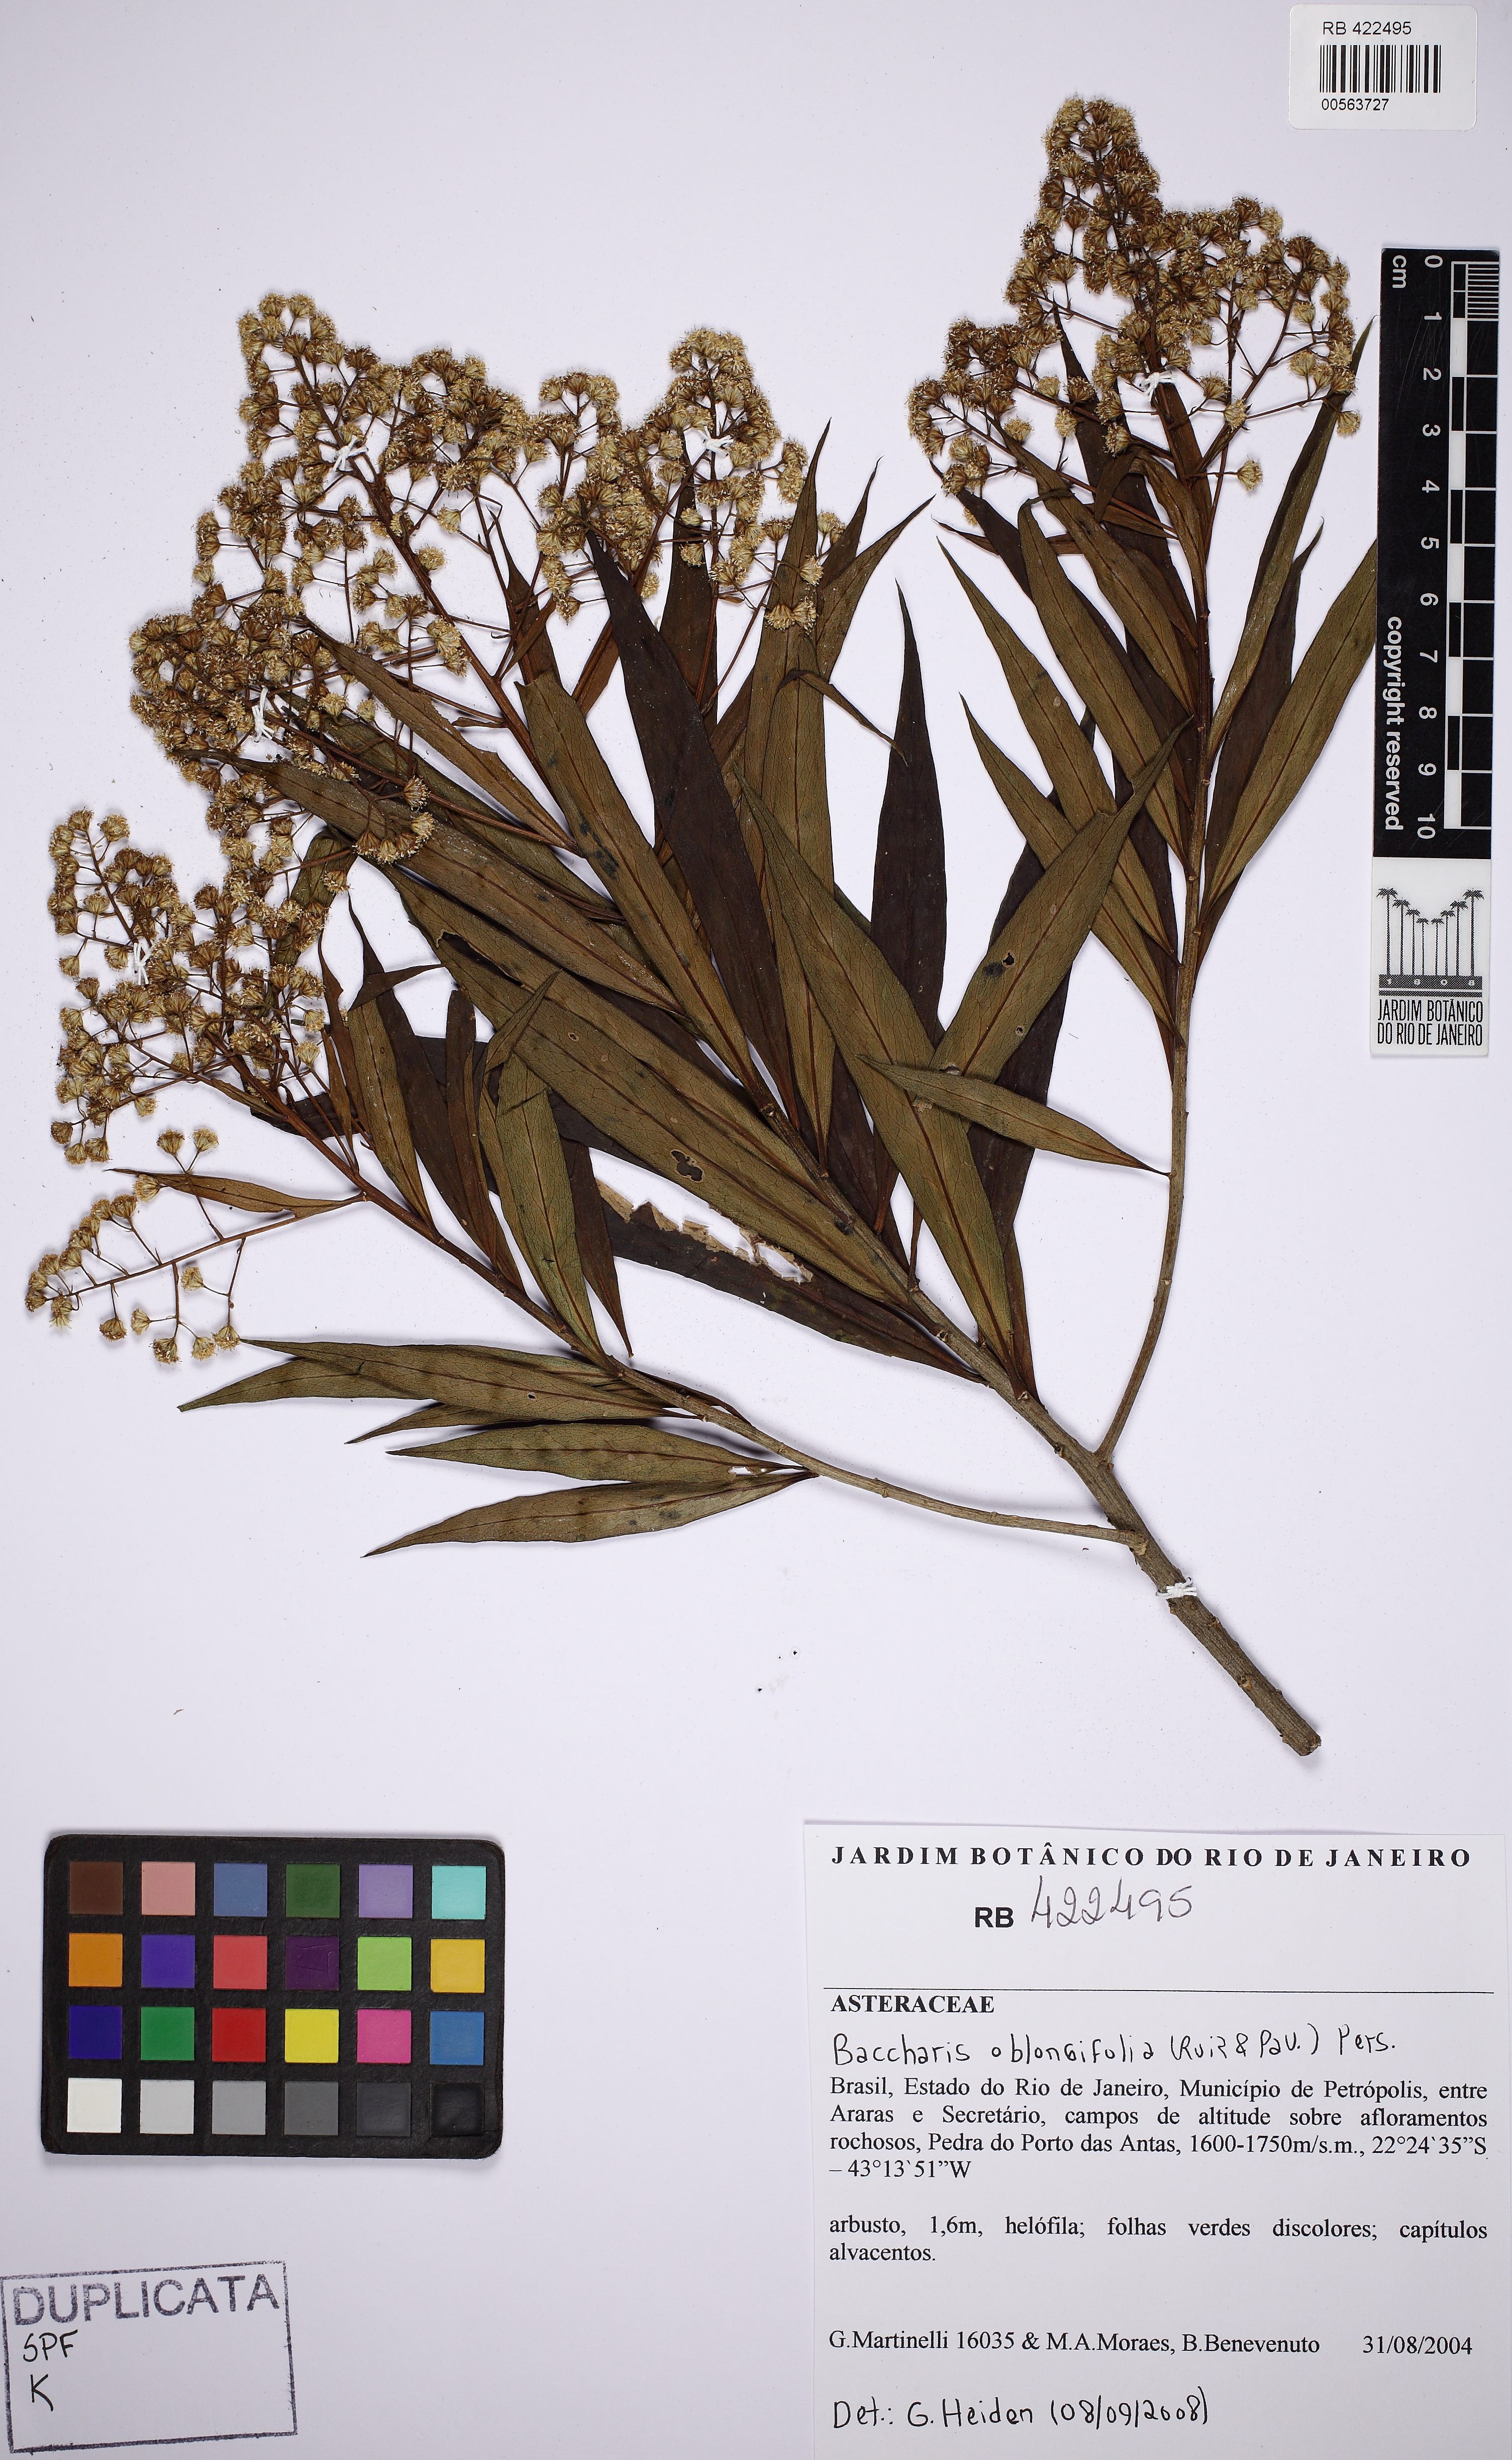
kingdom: Plantae
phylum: Tracheophyta
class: Magnoliopsida
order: Asterales
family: Asteraceae
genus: Baccharis
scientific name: Baccharis oblongifolia
